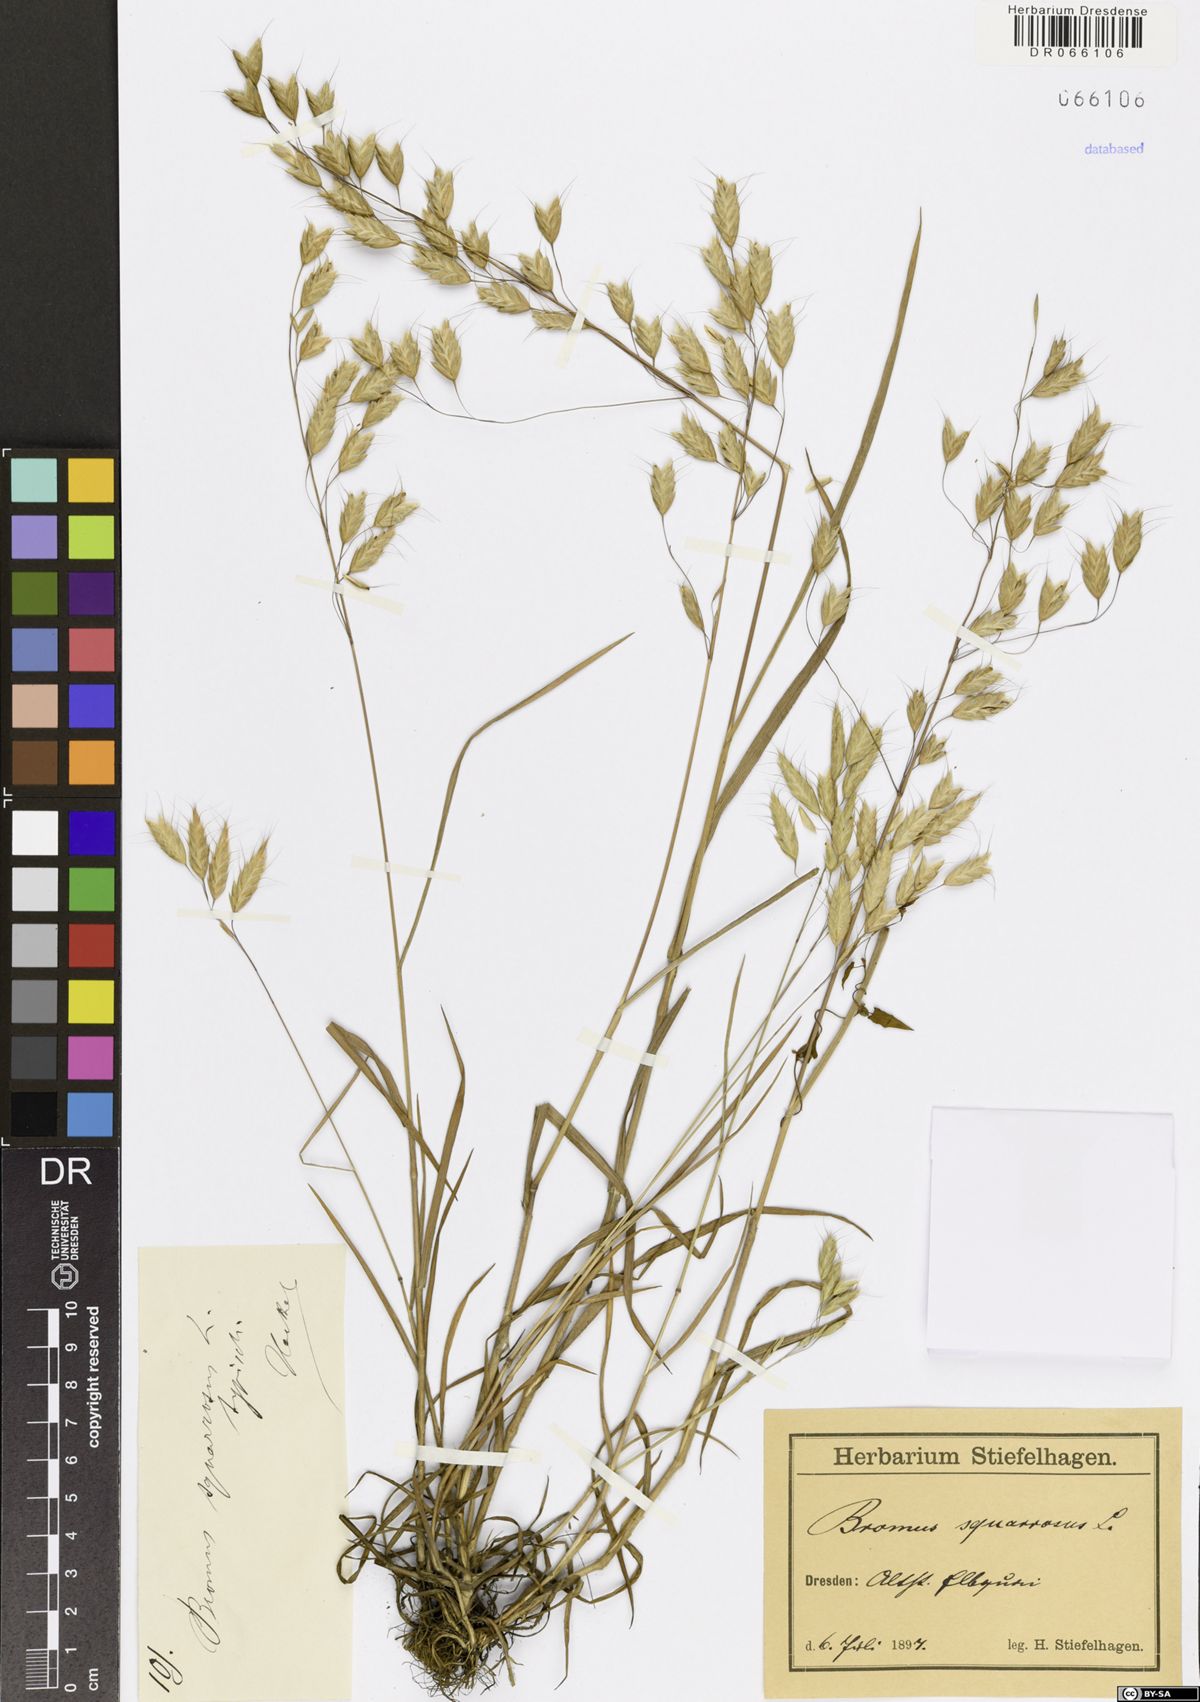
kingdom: Plantae
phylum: Tracheophyta
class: Liliopsida
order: Poales
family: Poaceae
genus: Bromus
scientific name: Bromus squarrosus
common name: Corn brome
